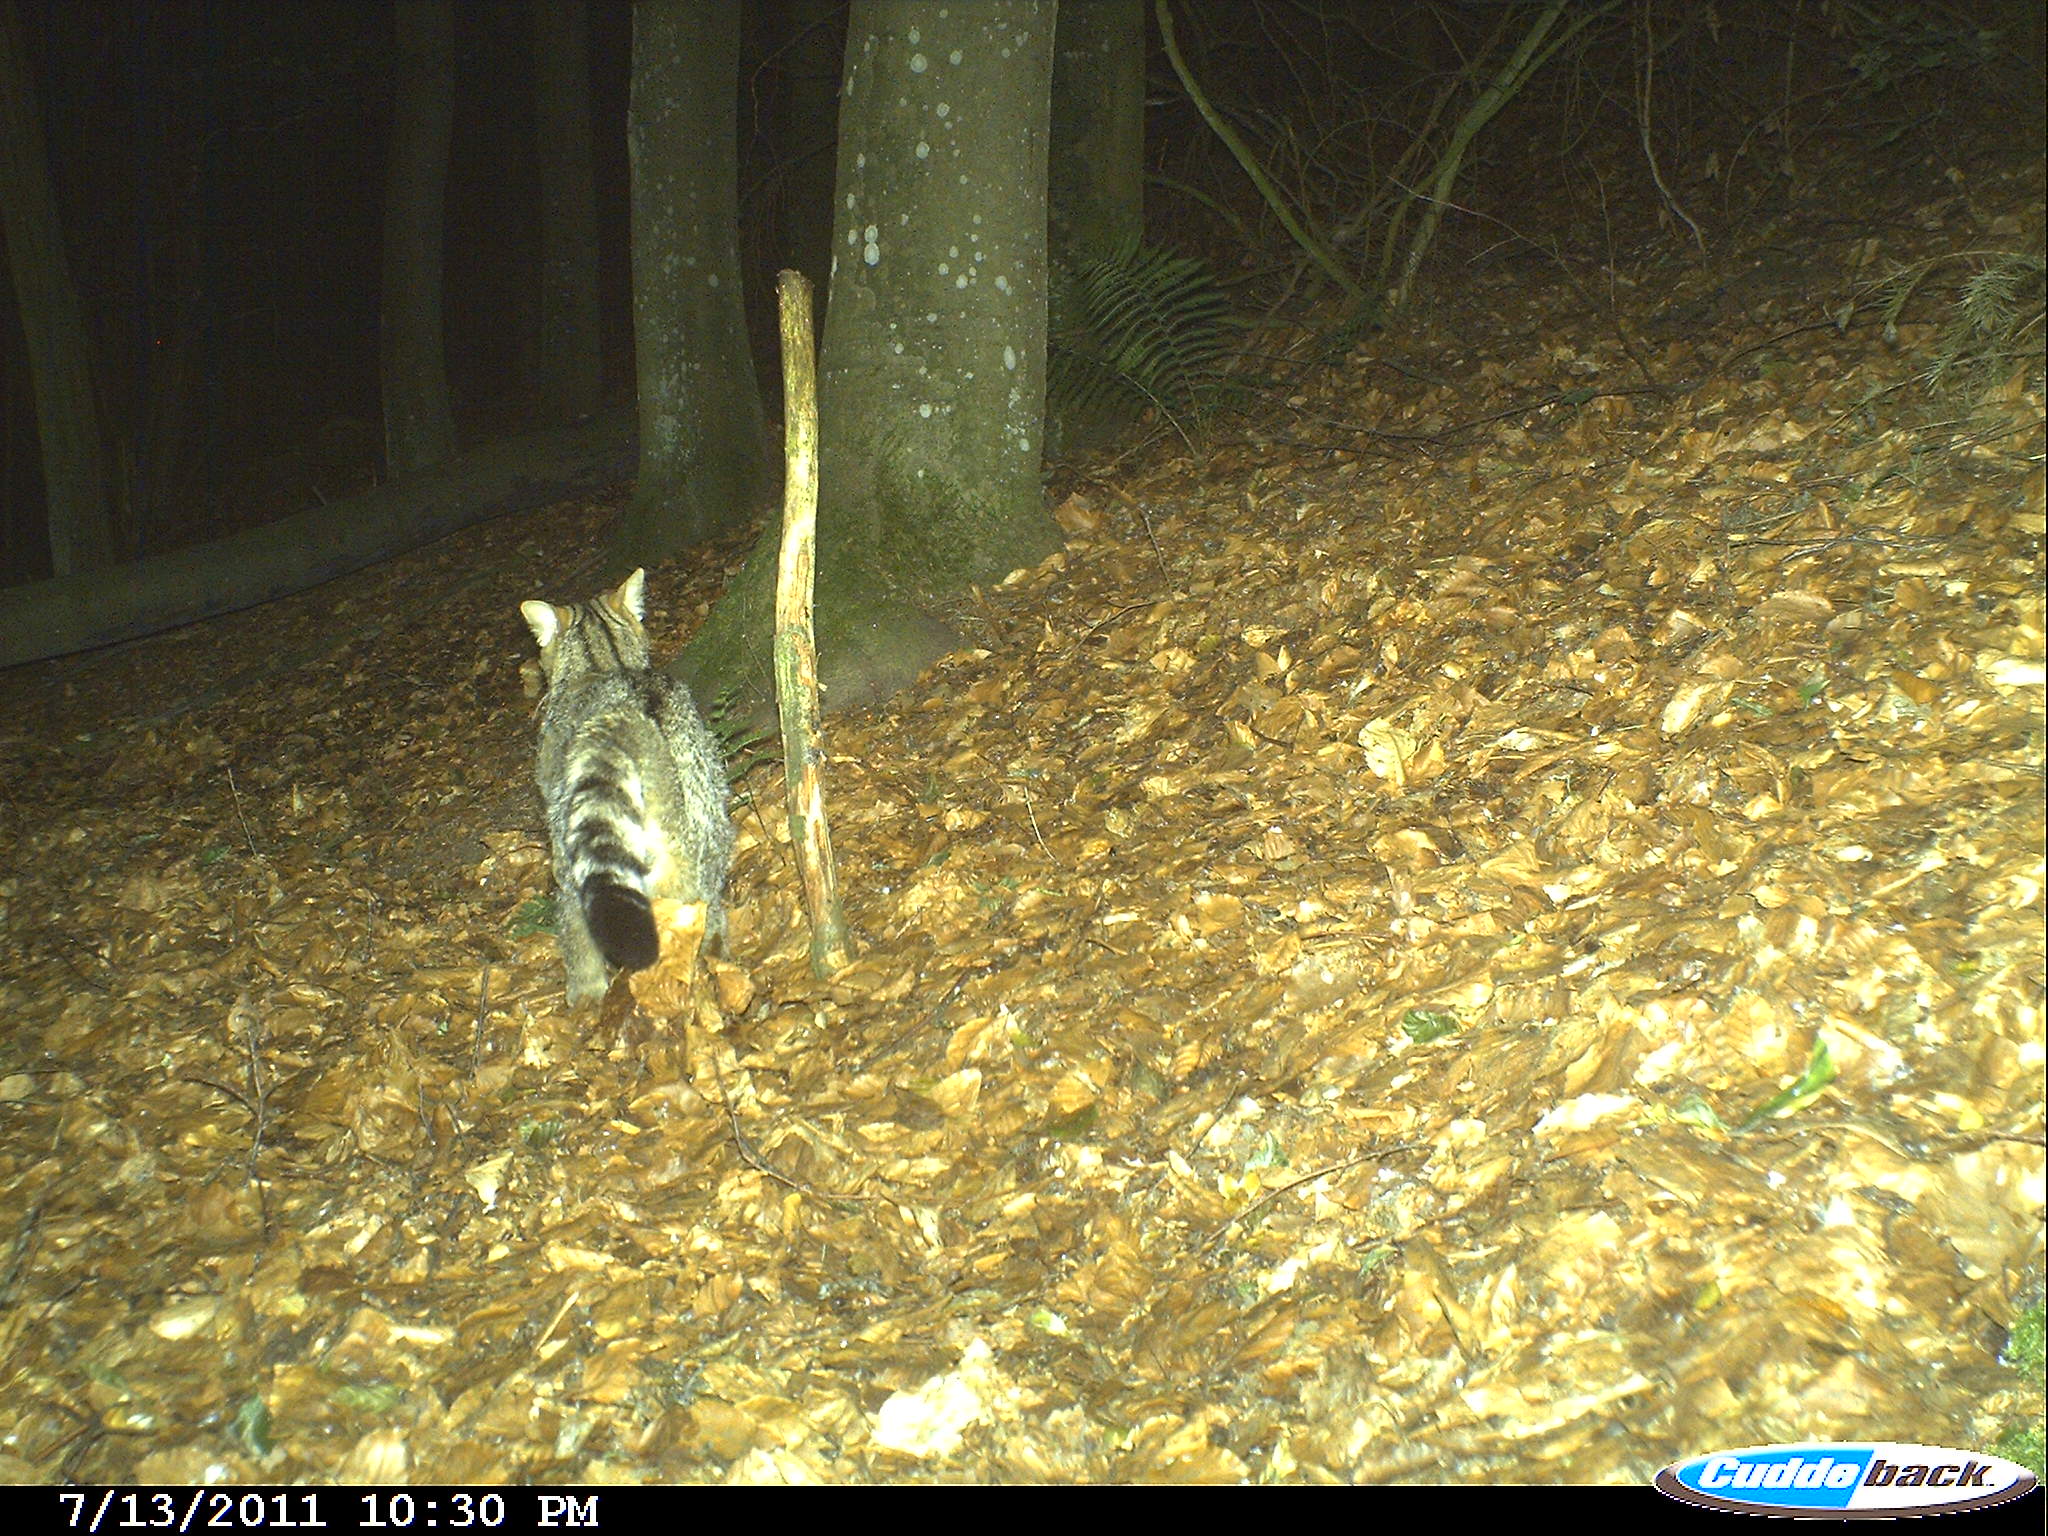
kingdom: Animalia
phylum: Chordata
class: Mammalia
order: Carnivora
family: Felidae
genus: Felis
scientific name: Felis silvestris
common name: Wildcat
